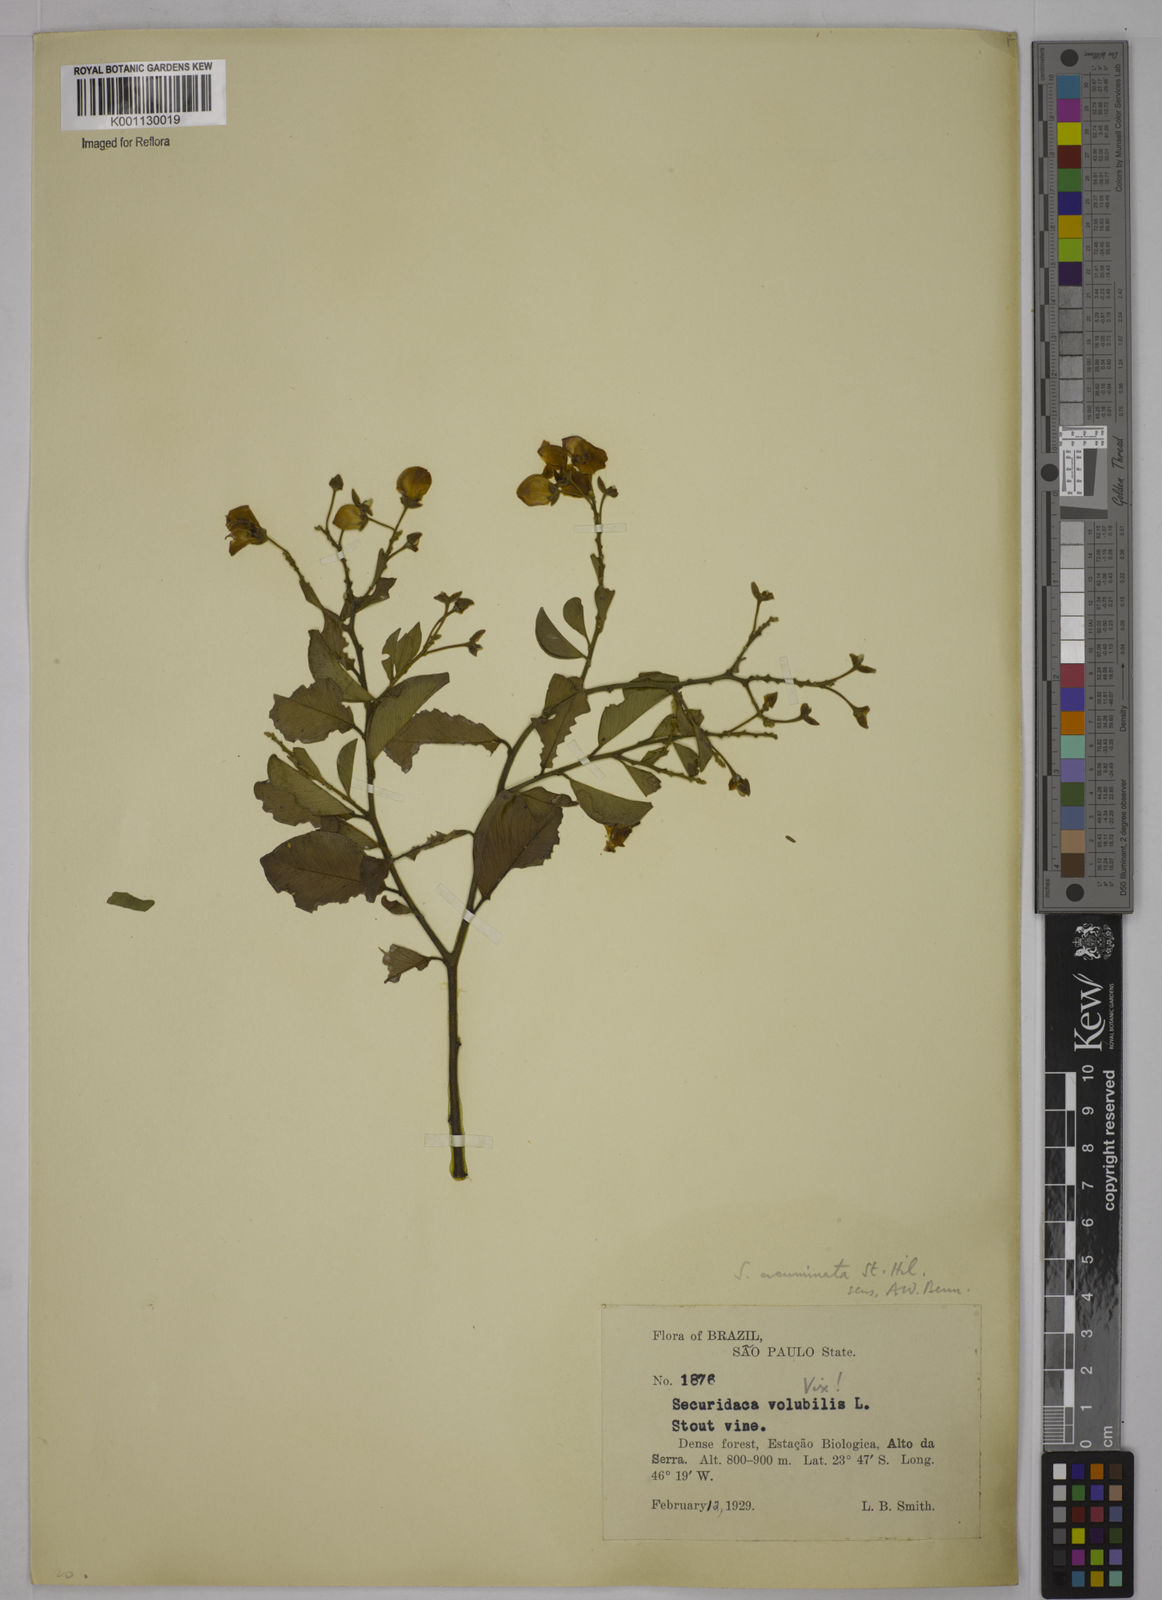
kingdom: Plantae
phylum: Tracheophyta
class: Magnoliopsida
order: Fabales
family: Polygalaceae
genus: Securidaca
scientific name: Securidaca acuminata
